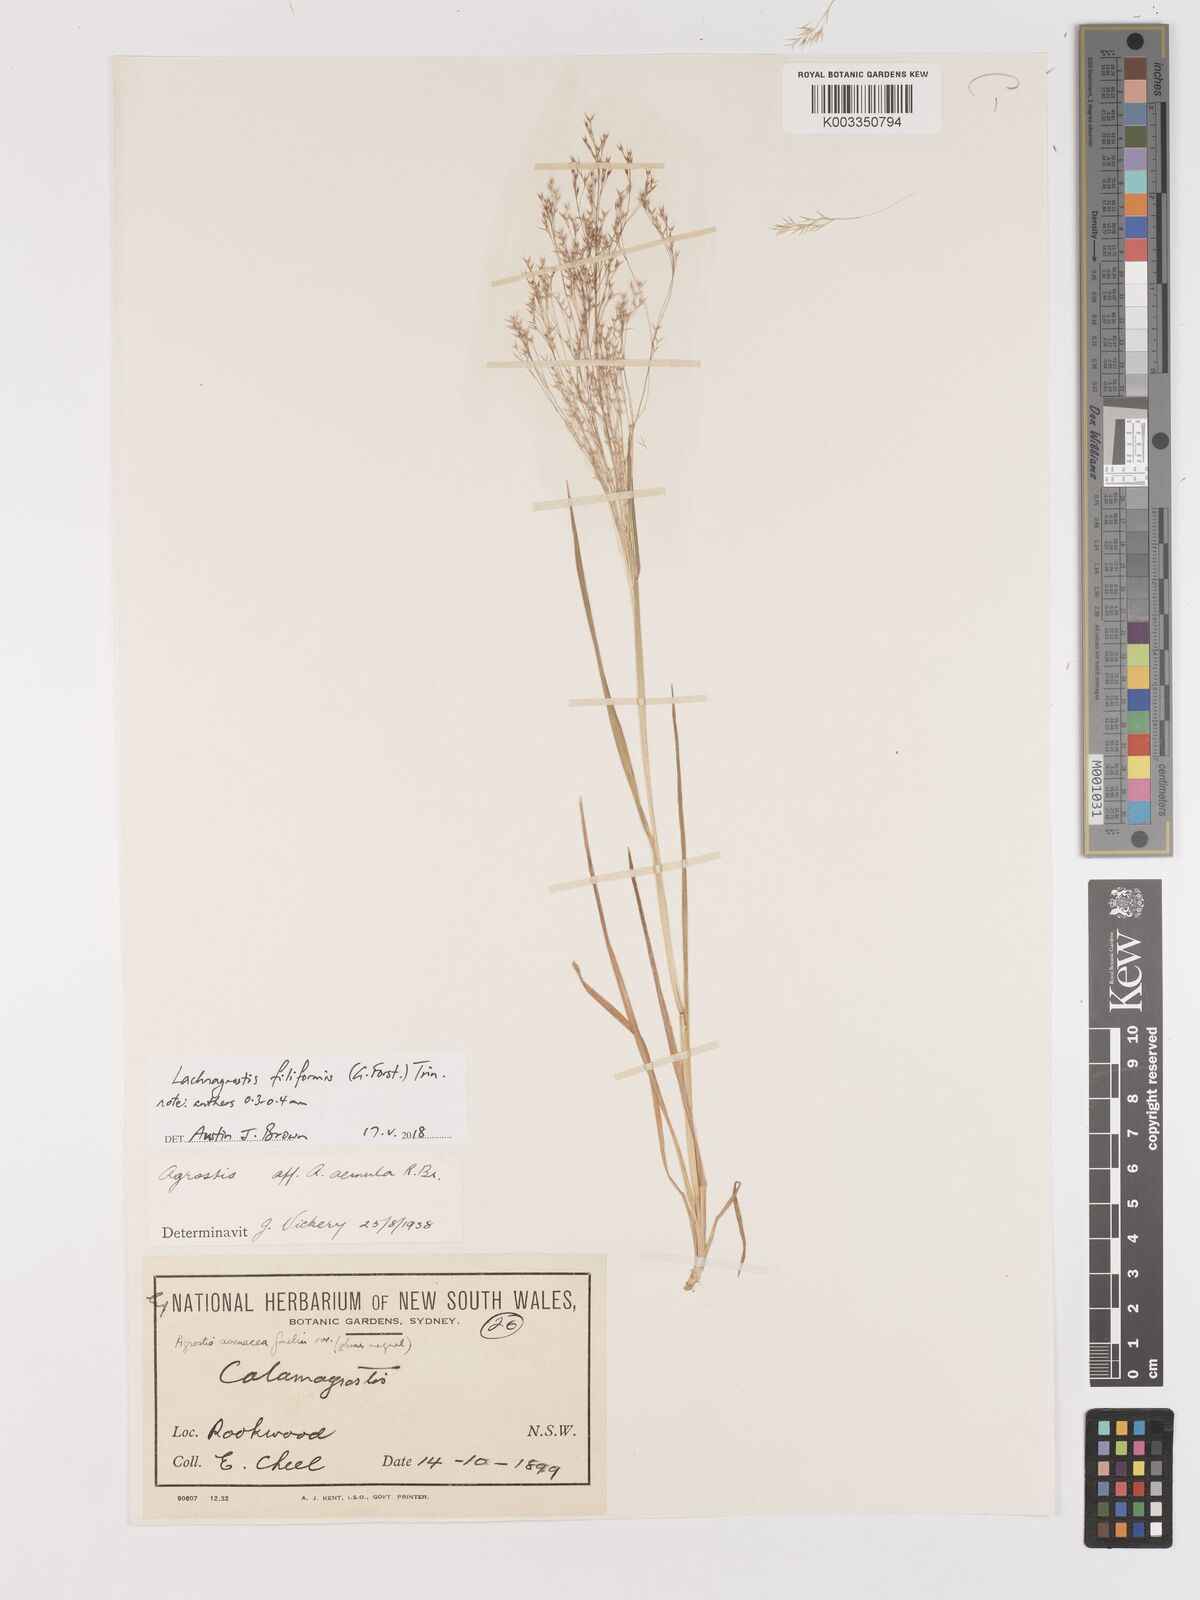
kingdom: Plantae
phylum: Tracheophyta
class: Liliopsida
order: Poales
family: Poaceae
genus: Lachnagrostis
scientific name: Lachnagrostis filiformis
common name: Bentgrass
